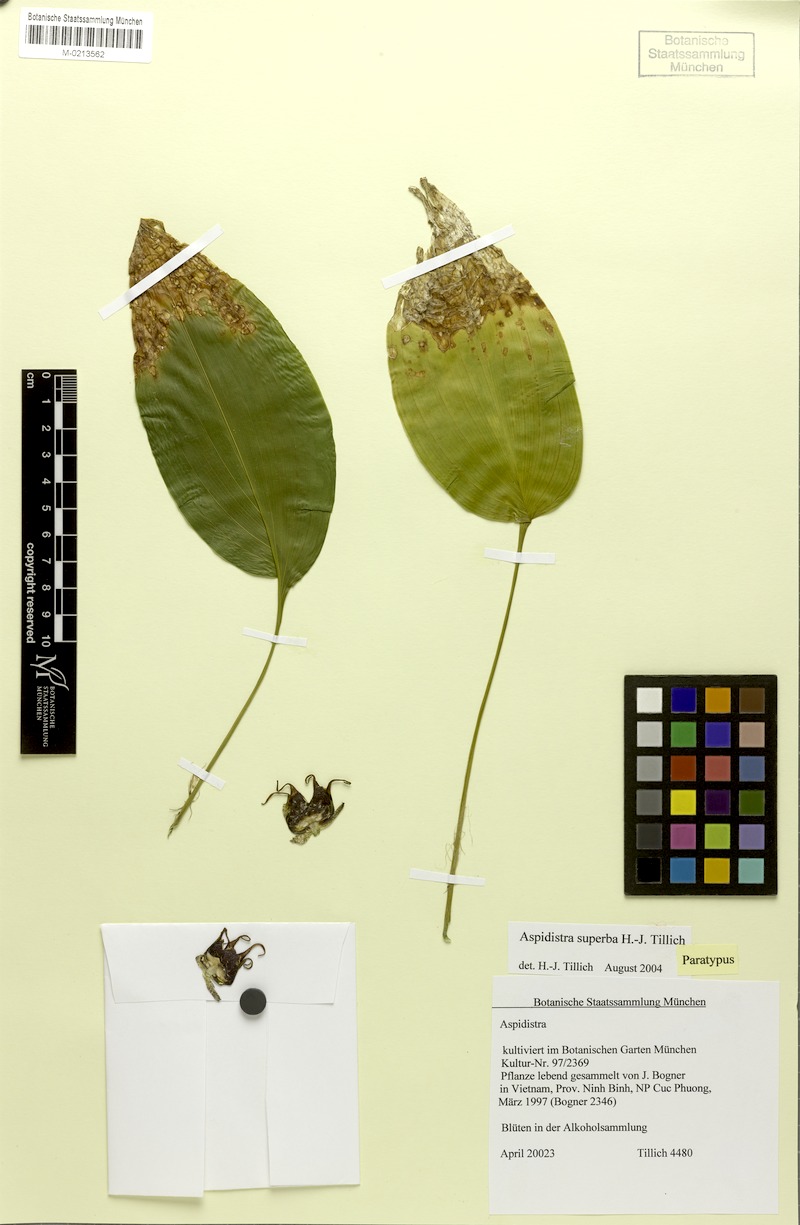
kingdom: Plantae
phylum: Tracheophyta
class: Liliopsida
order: Asparagales
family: Asparagaceae
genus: Aspidistra
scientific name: Aspidistra superba
